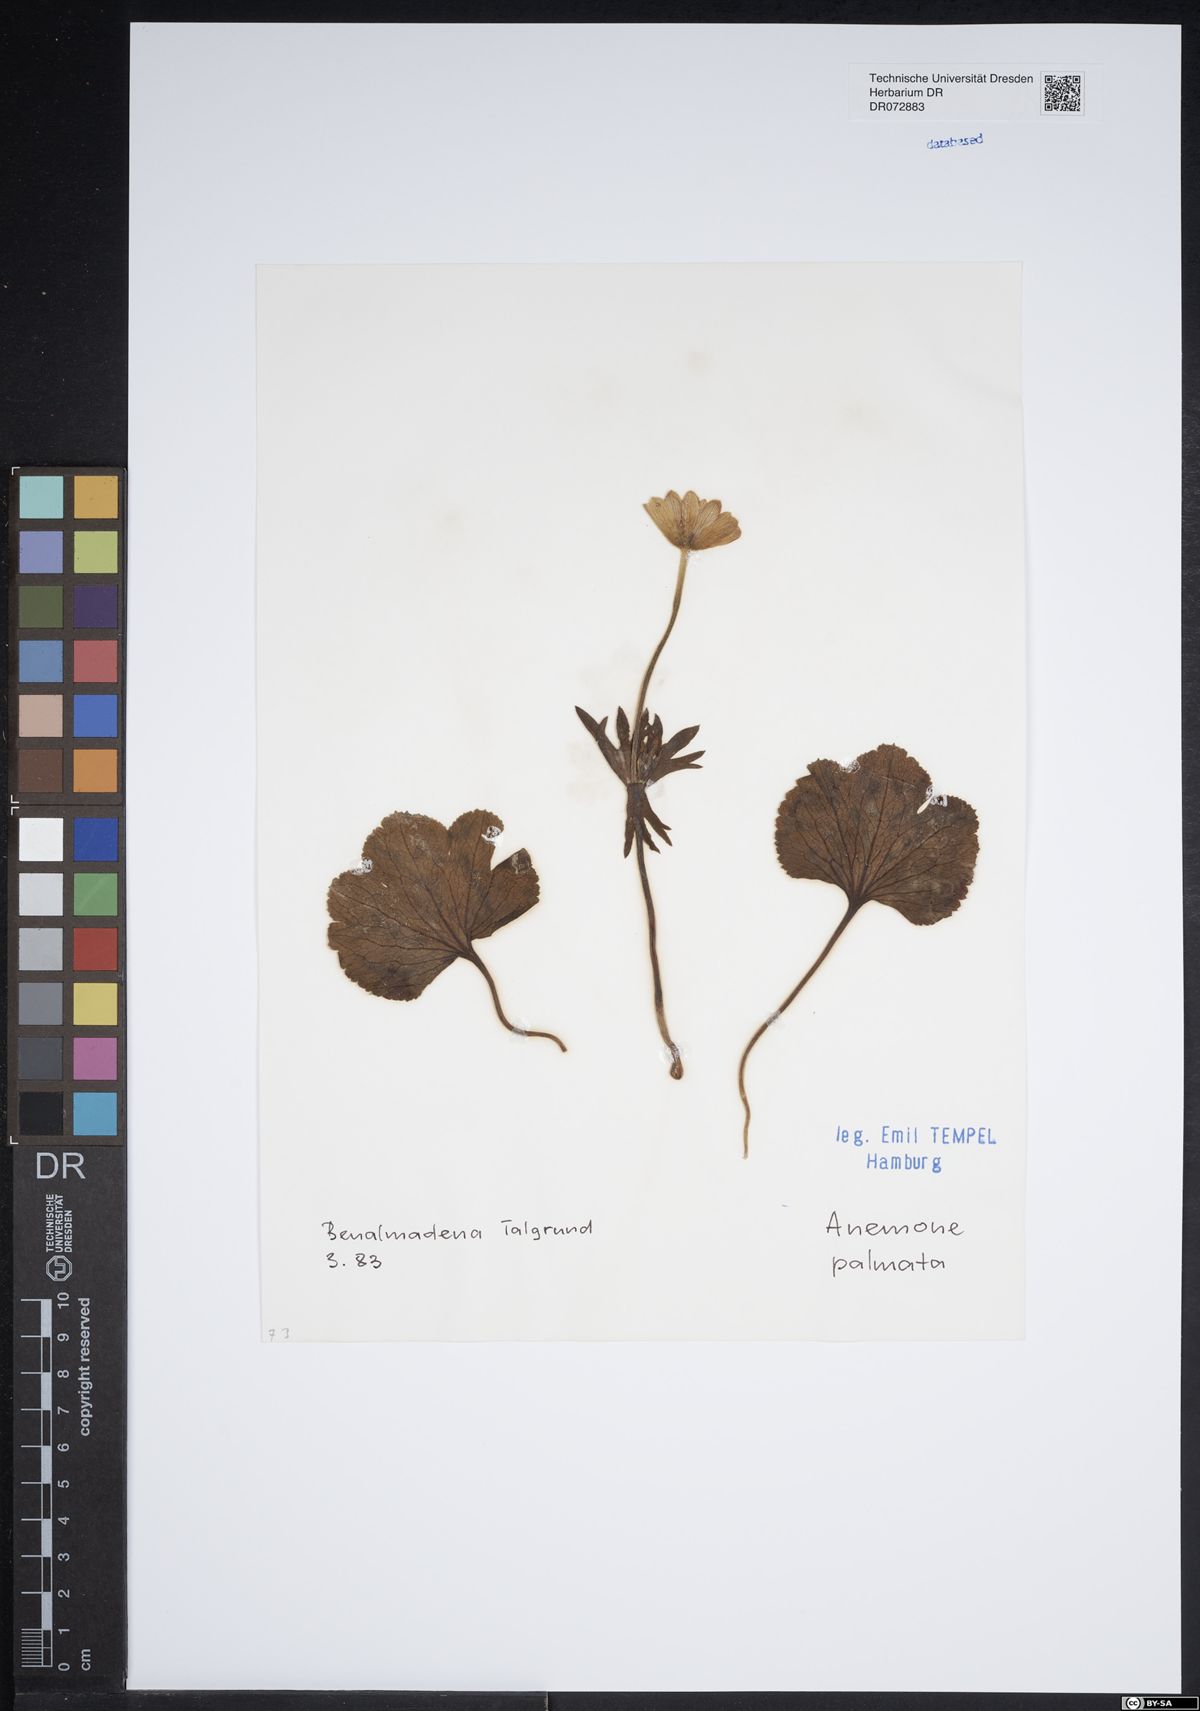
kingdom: Plantae
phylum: Tracheophyta
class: Magnoliopsida
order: Ranunculales
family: Ranunculaceae
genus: Anemone
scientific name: Anemone palmata
